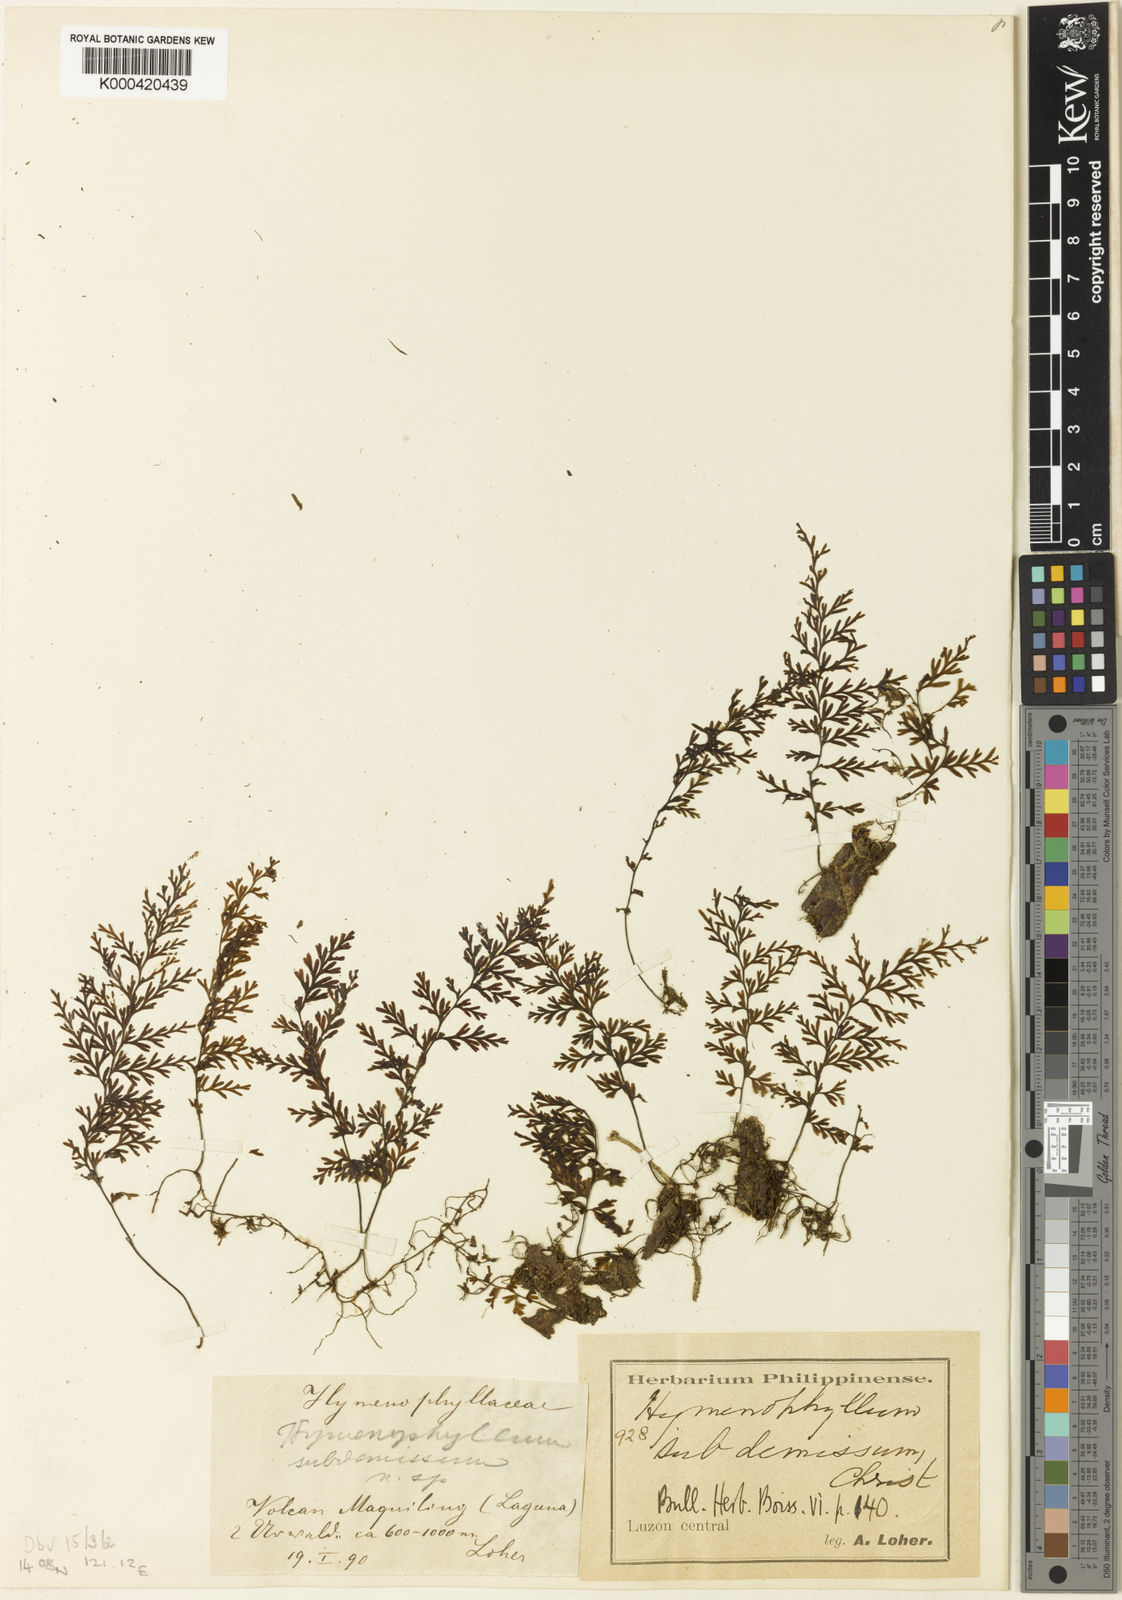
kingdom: Plantae
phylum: Tracheophyta
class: Polypodiopsida
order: Hymenophyllales
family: Hymenophyllaceae
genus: Hymenophyllum
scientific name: Hymenophyllum subdemissum
